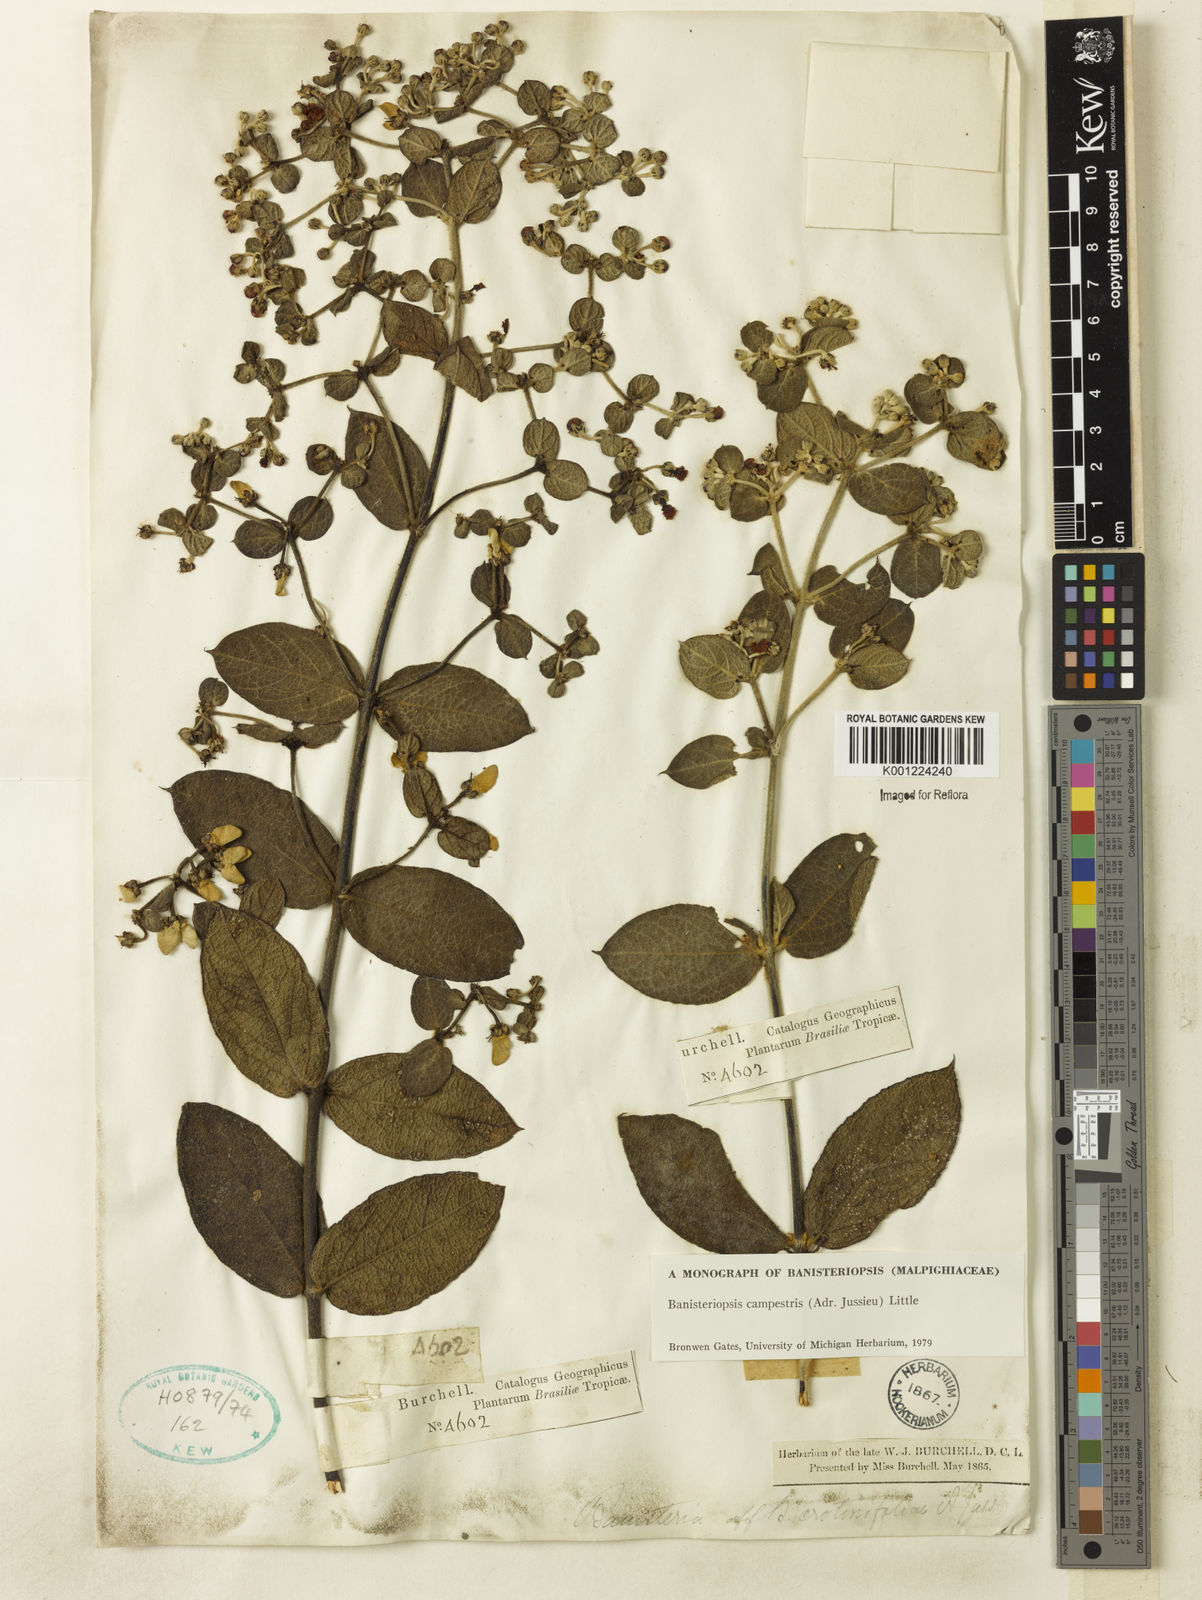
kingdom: Plantae
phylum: Tracheophyta
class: Magnoliopsida
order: Malpighiales
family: Malpighiaceae
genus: Banisteriopsis
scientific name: Banisteriopsis campestris
